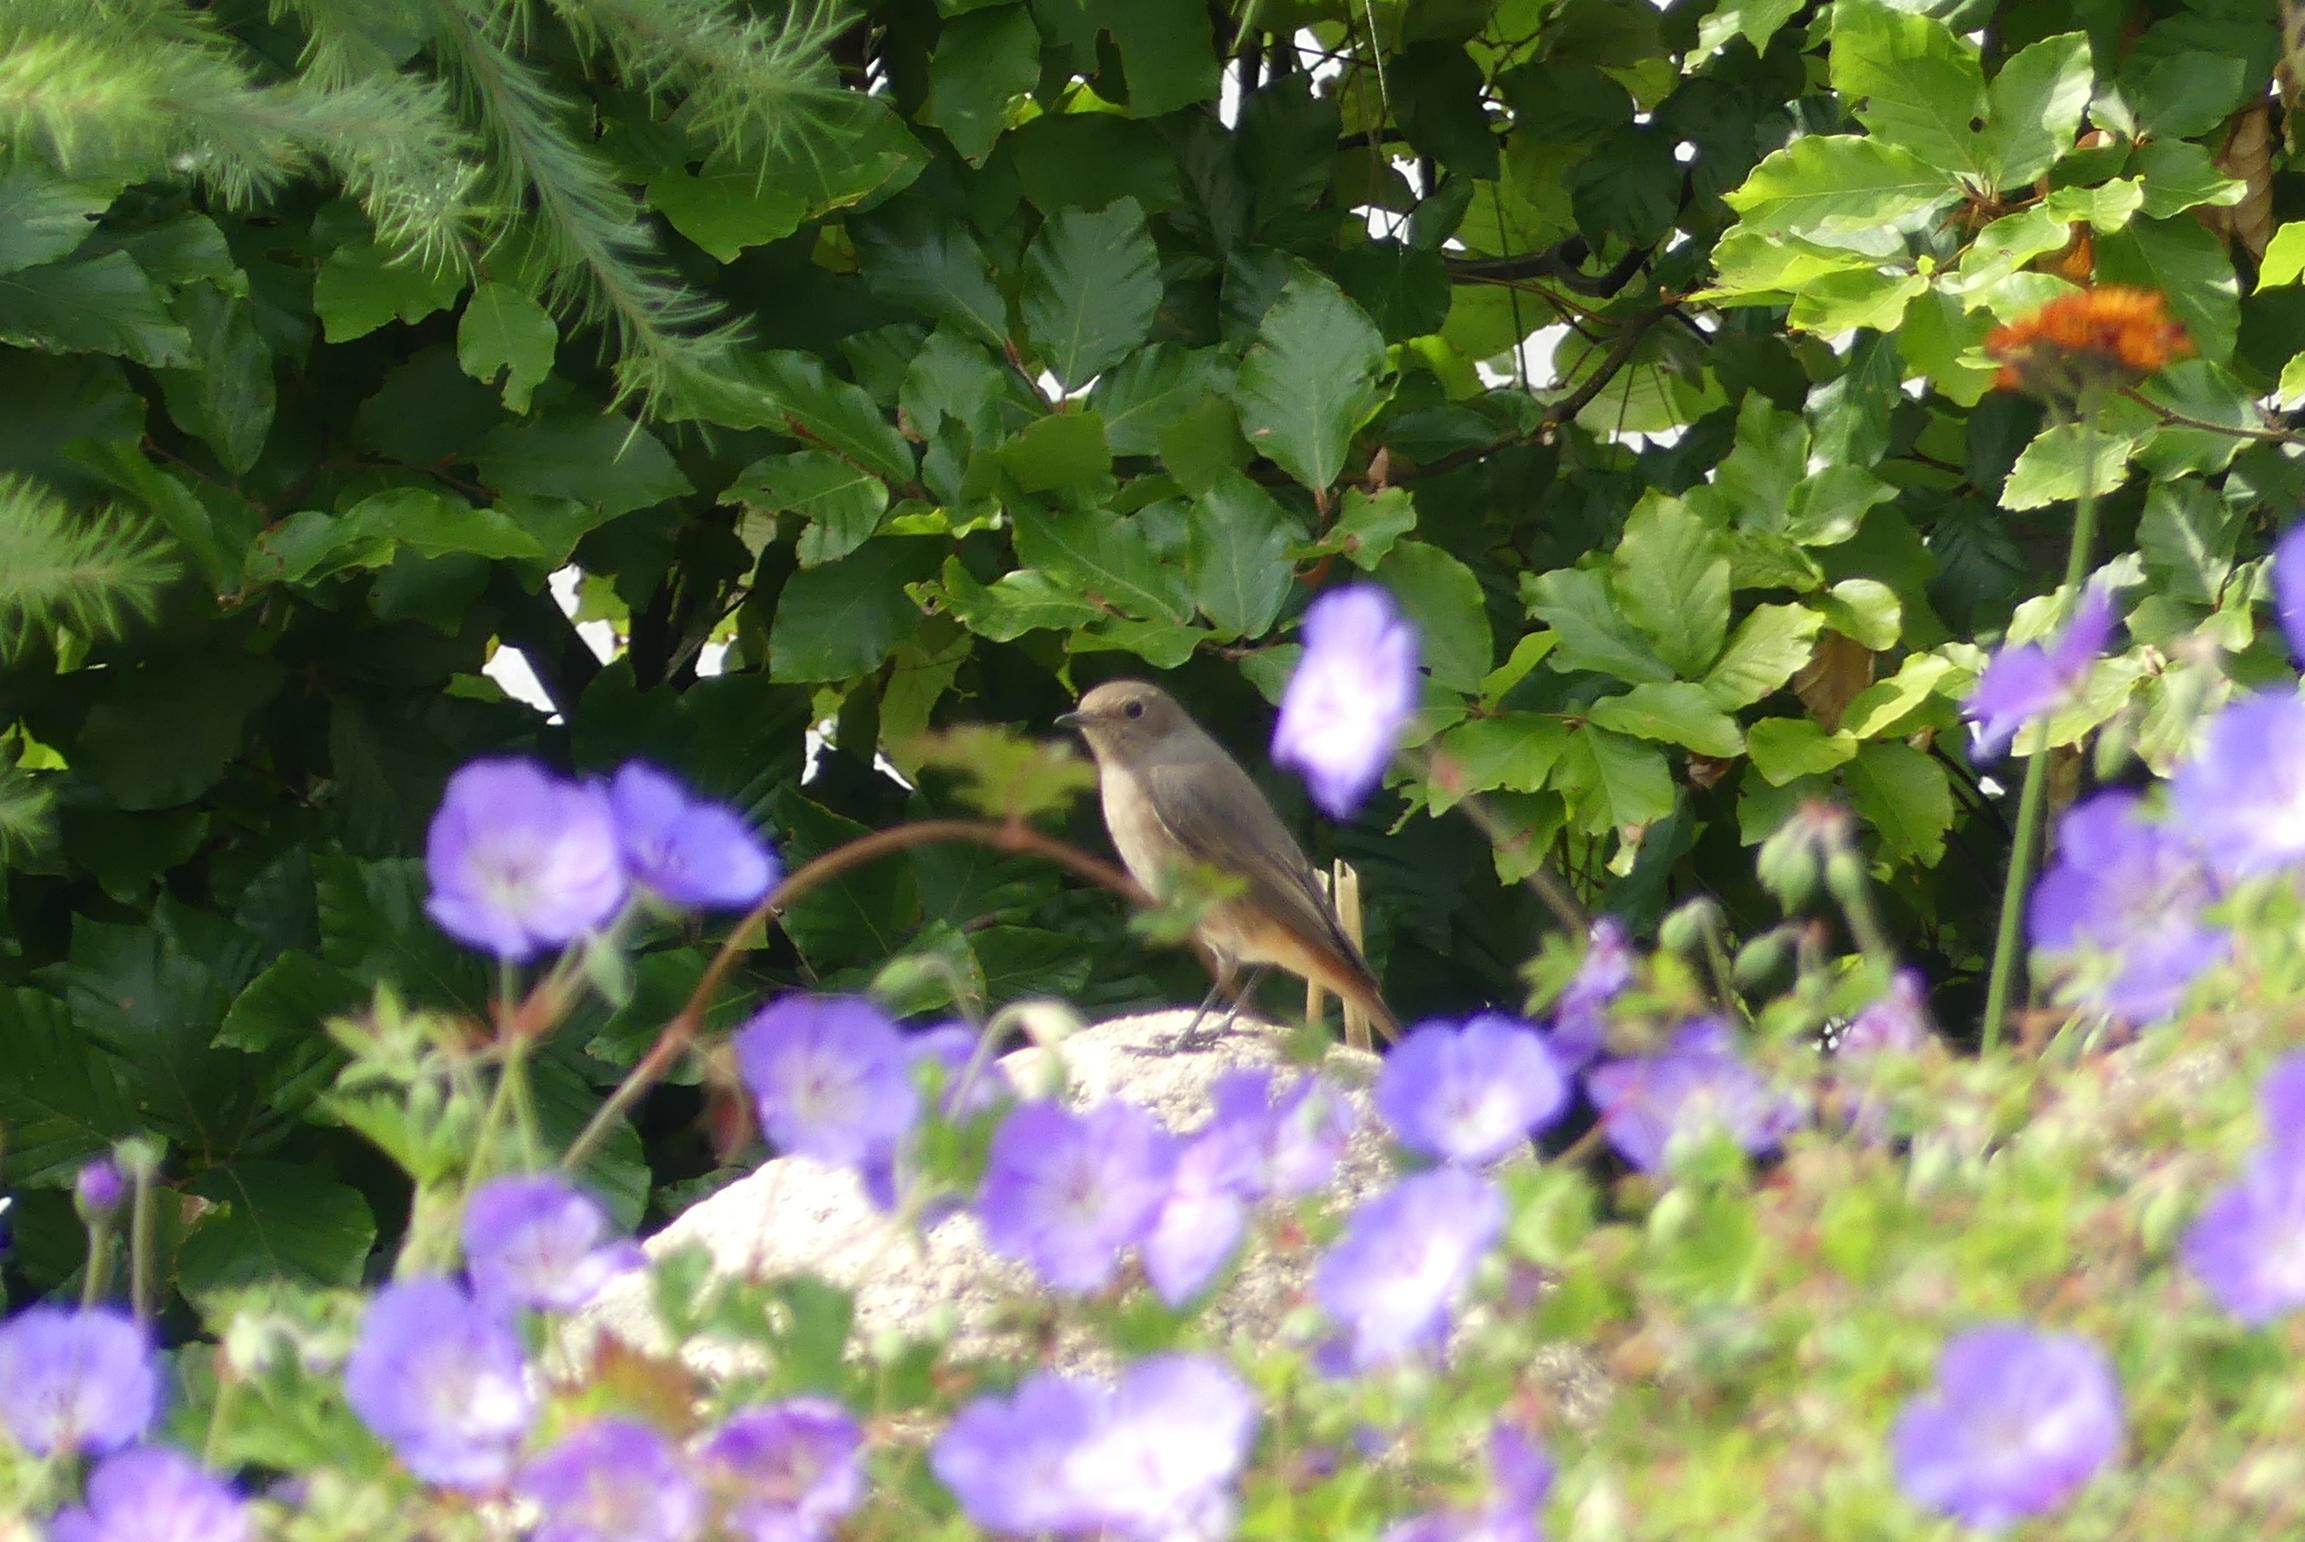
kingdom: Animalia
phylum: Chordata
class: Aves
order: Passeriformes
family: Muscicapidae
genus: Phoenicurus
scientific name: Phoenicurus phoenicurus
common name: Rødstjert
